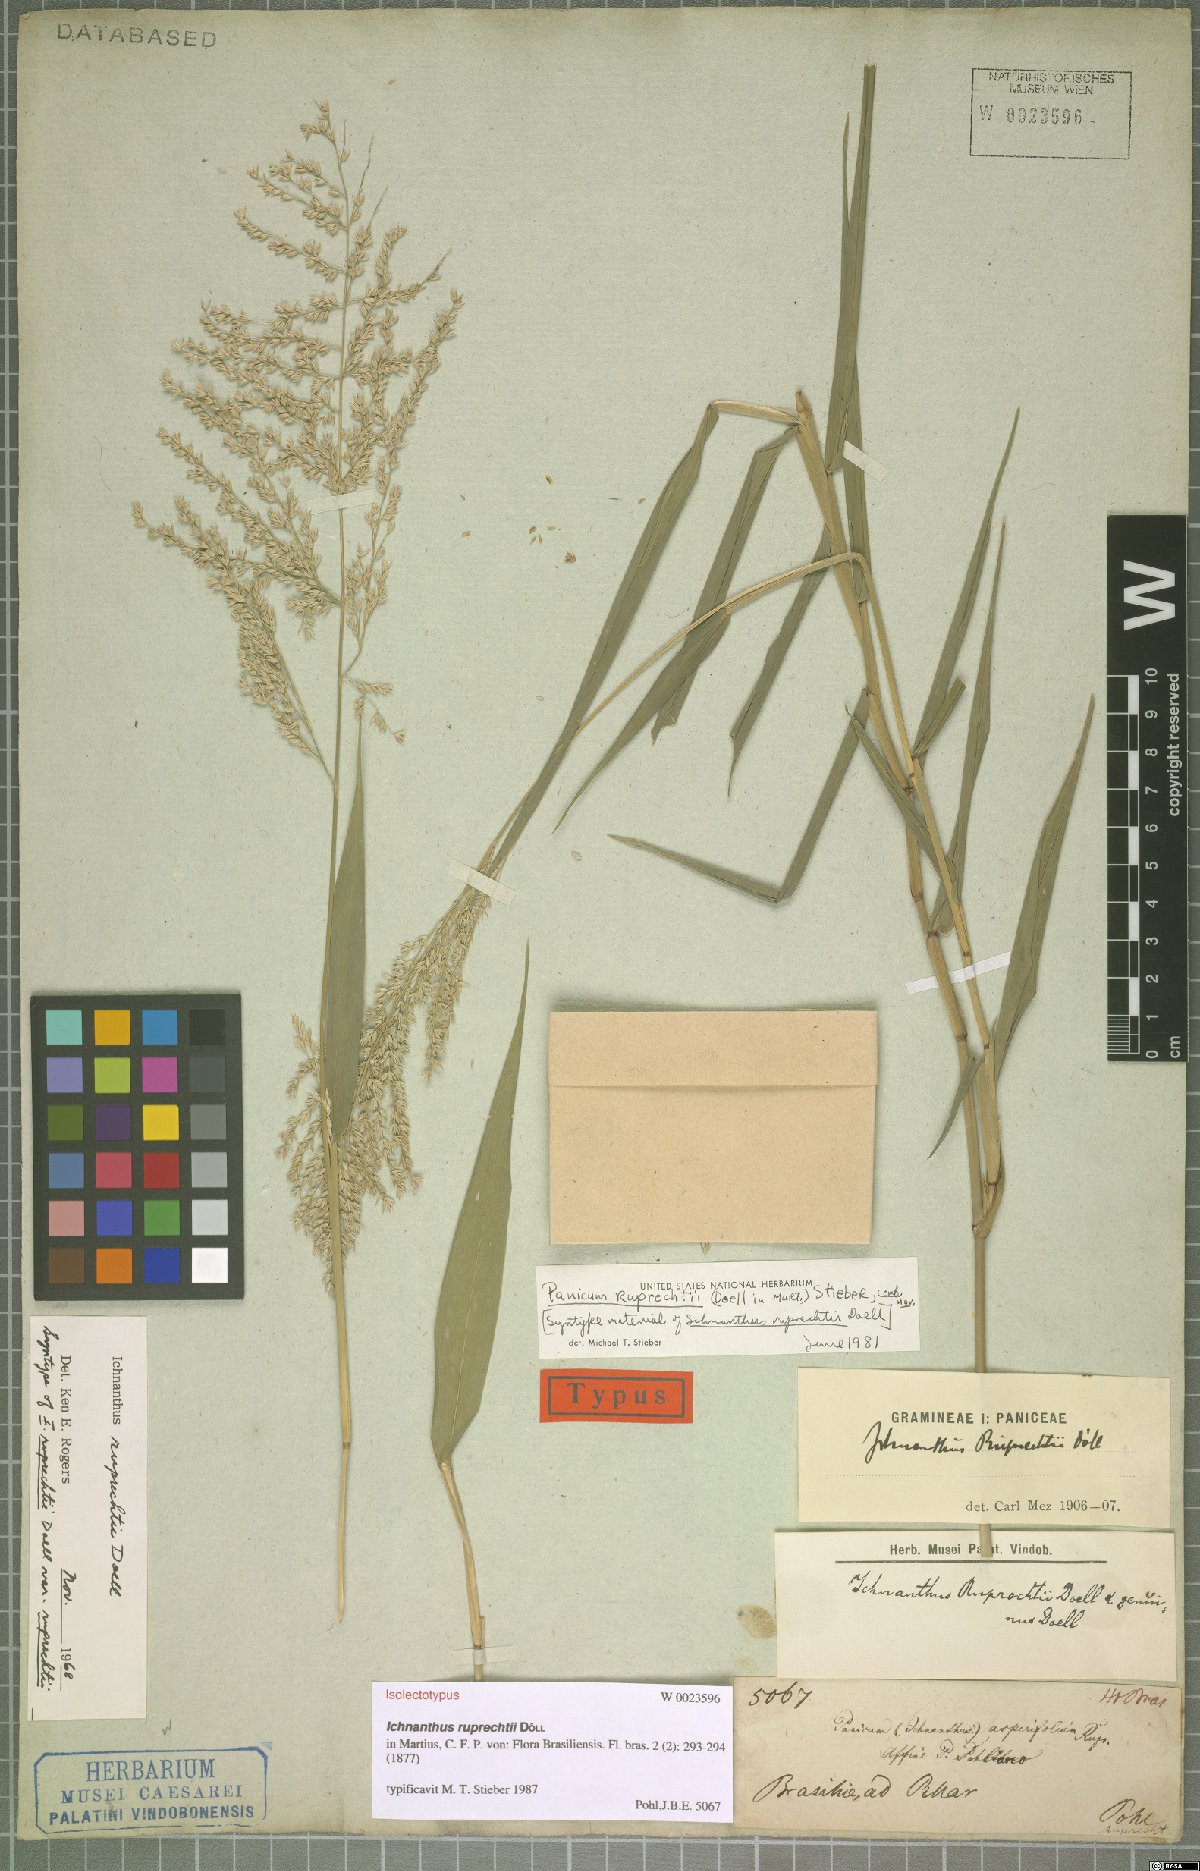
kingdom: Plantae
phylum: Tracheophyta
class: Liliopsida
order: Poales
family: Poaceae
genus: Ichnanthus
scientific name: Ichnanthus ruprechtii
